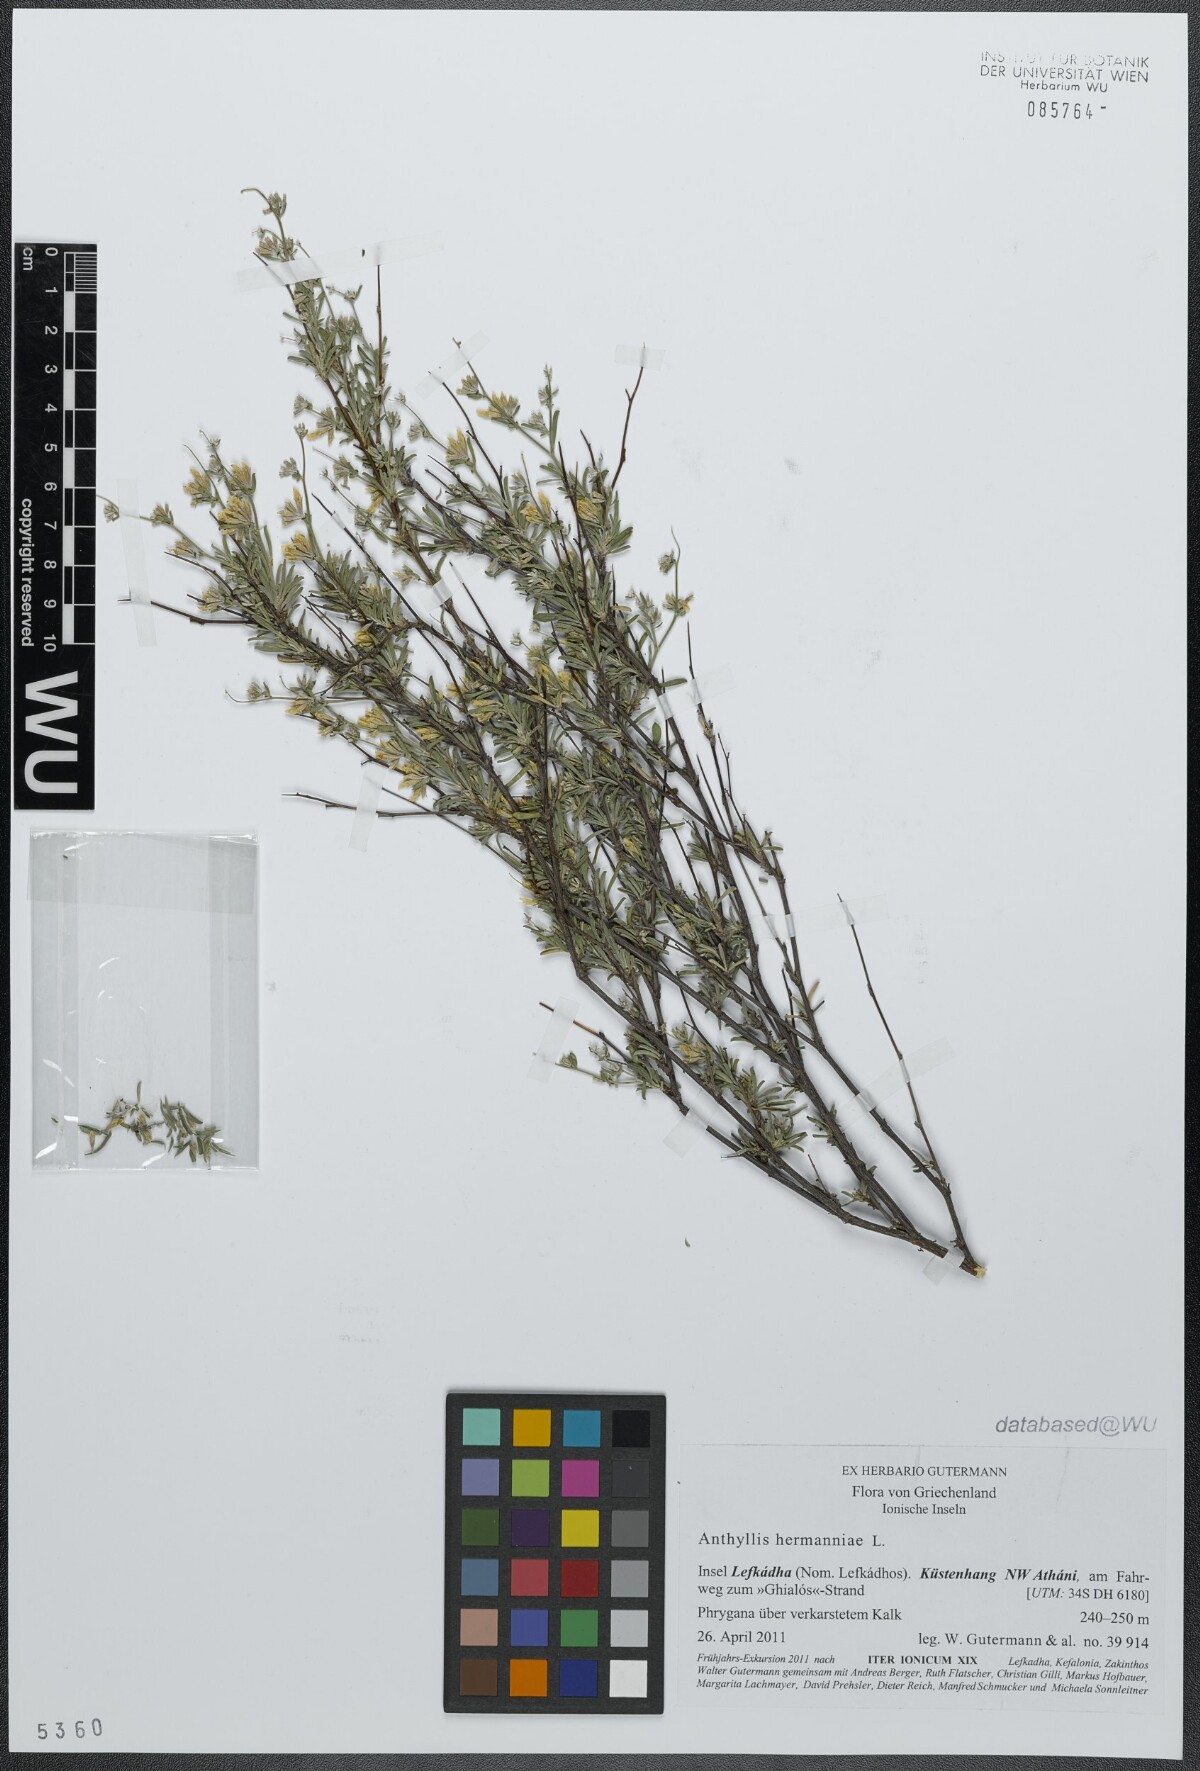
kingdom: Plantae
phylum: Tracheophyta
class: Magnoliopsida
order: Fabales
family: Fabaceae
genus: Anthyllis
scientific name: Anthyllis hermanniae
